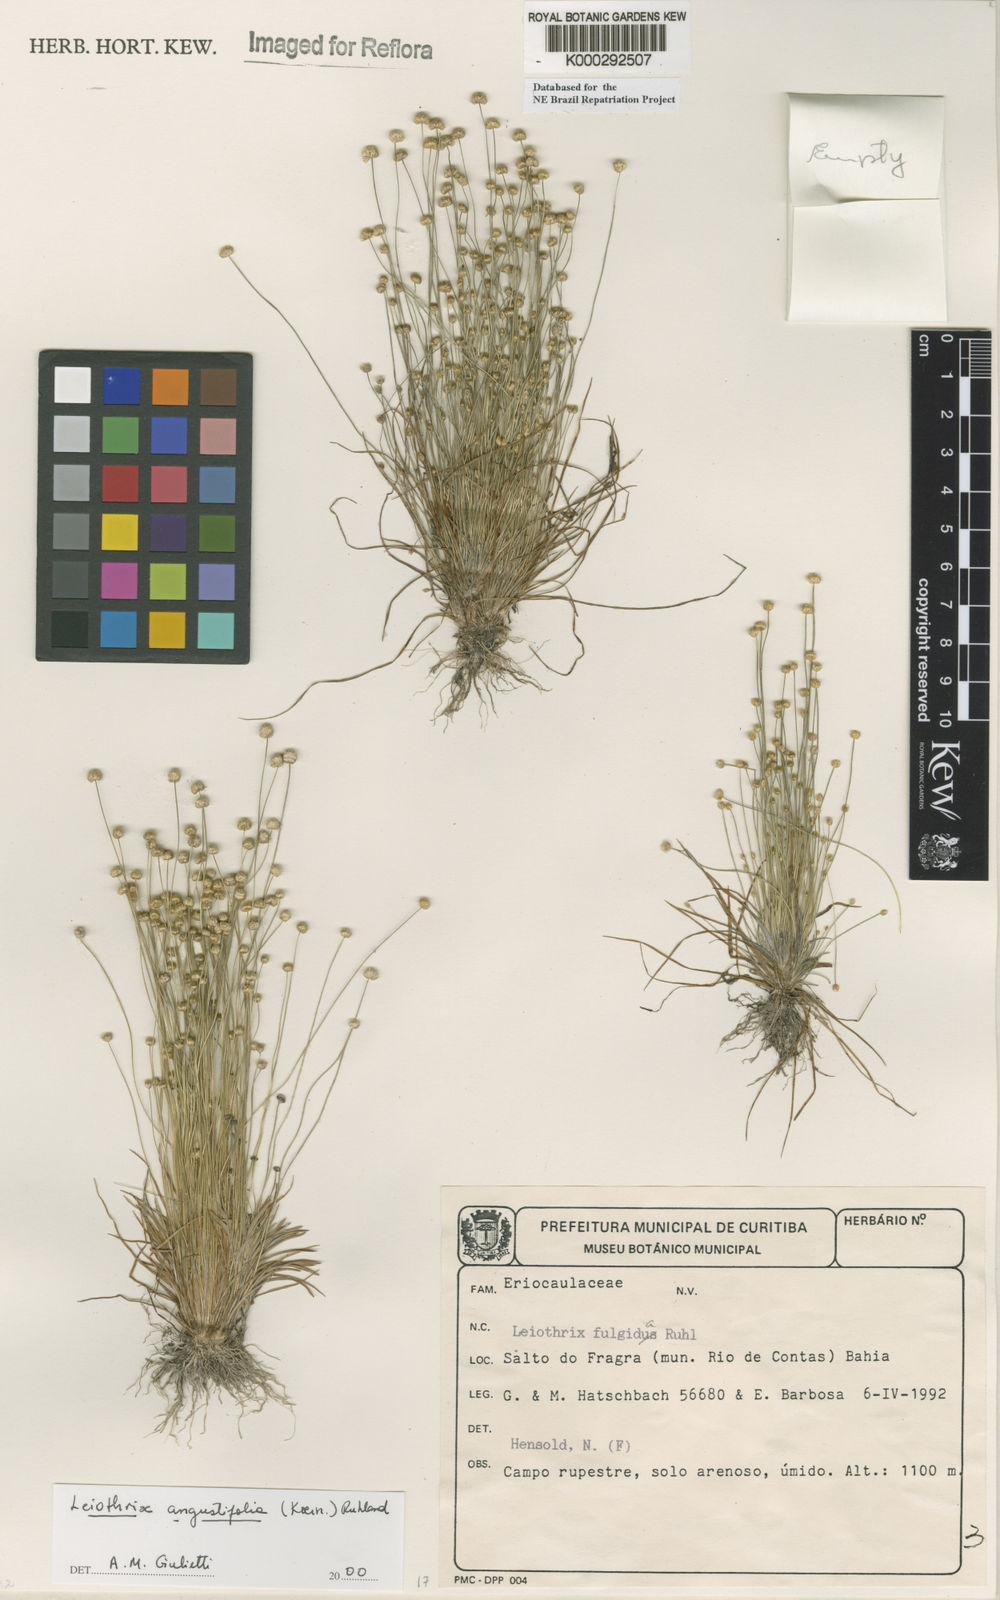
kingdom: Plantae
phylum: Tracheophyta
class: Liliopsida
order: Poales
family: Eriocaulaceae
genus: Leiothrix
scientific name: Leiothrix angustifolia
